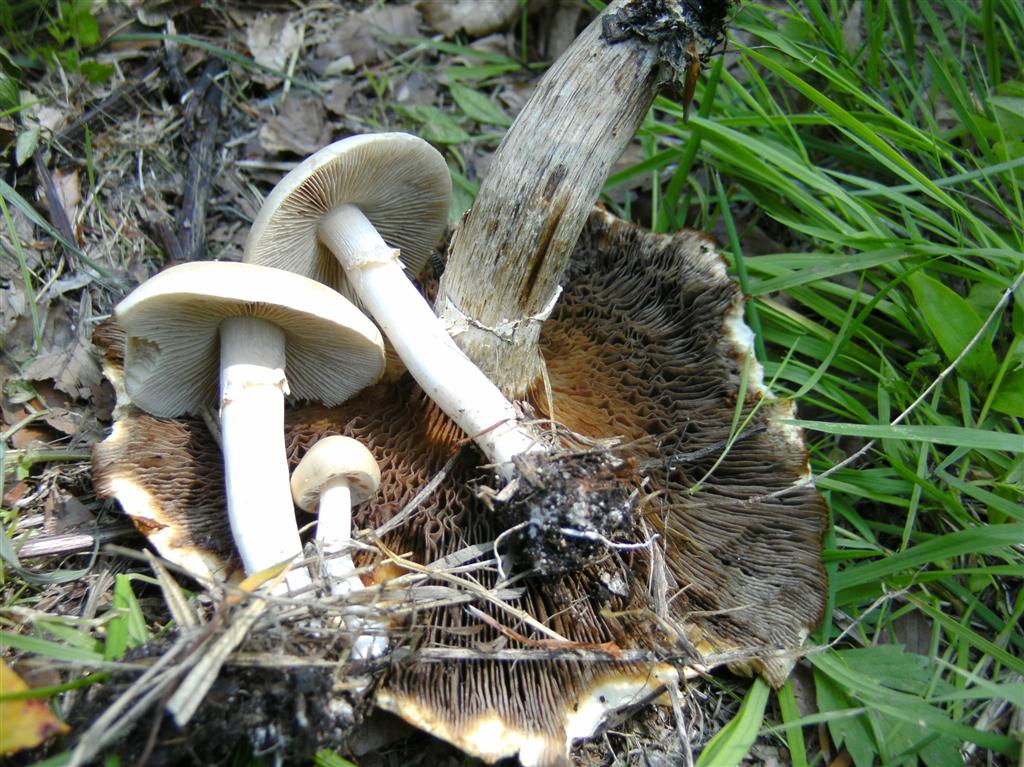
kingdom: Fungi
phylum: Basidiomycota
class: Agaricomycetes
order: Agaricales
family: Strophariaceae
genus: Agrocybe
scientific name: Agrocybe praecox
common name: tidlig agerhat
